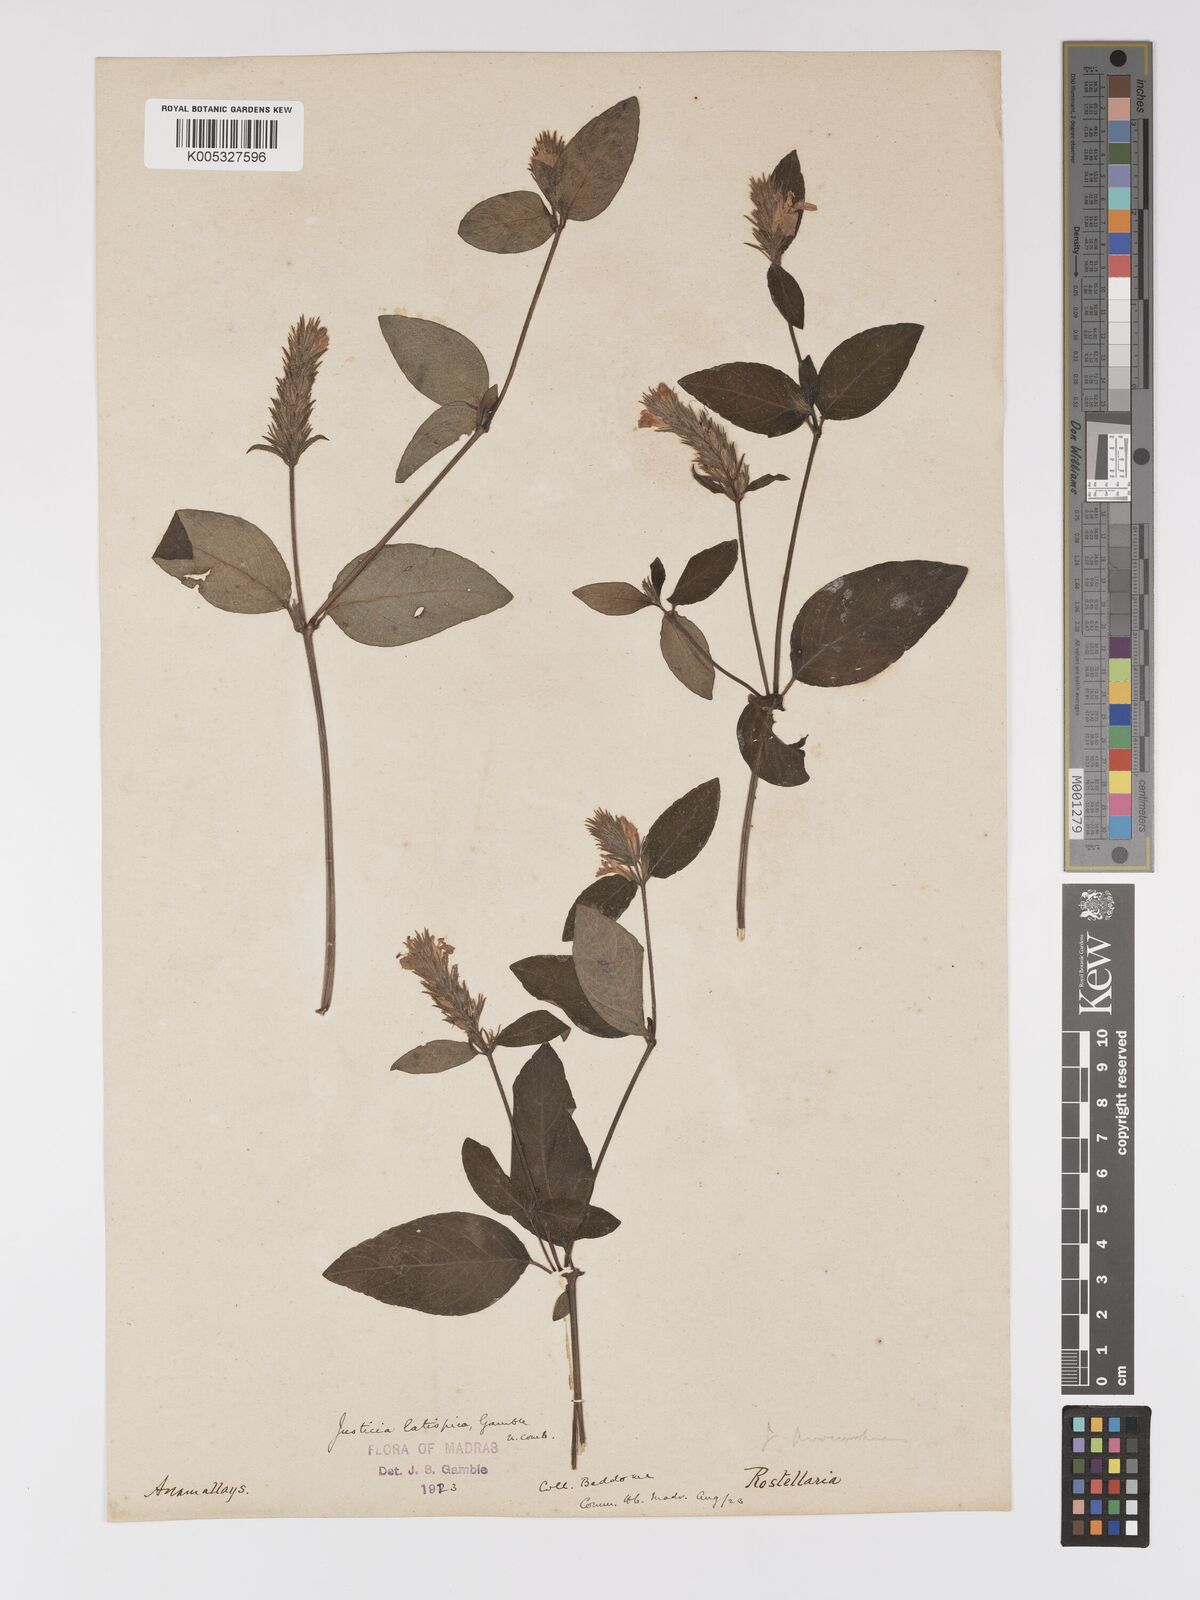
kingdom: Plantae
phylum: Tracheophyta
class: Magnoliopsida
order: Lamiales
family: Acanthaceae
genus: Rostellularia
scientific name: Rostellularia latispica
